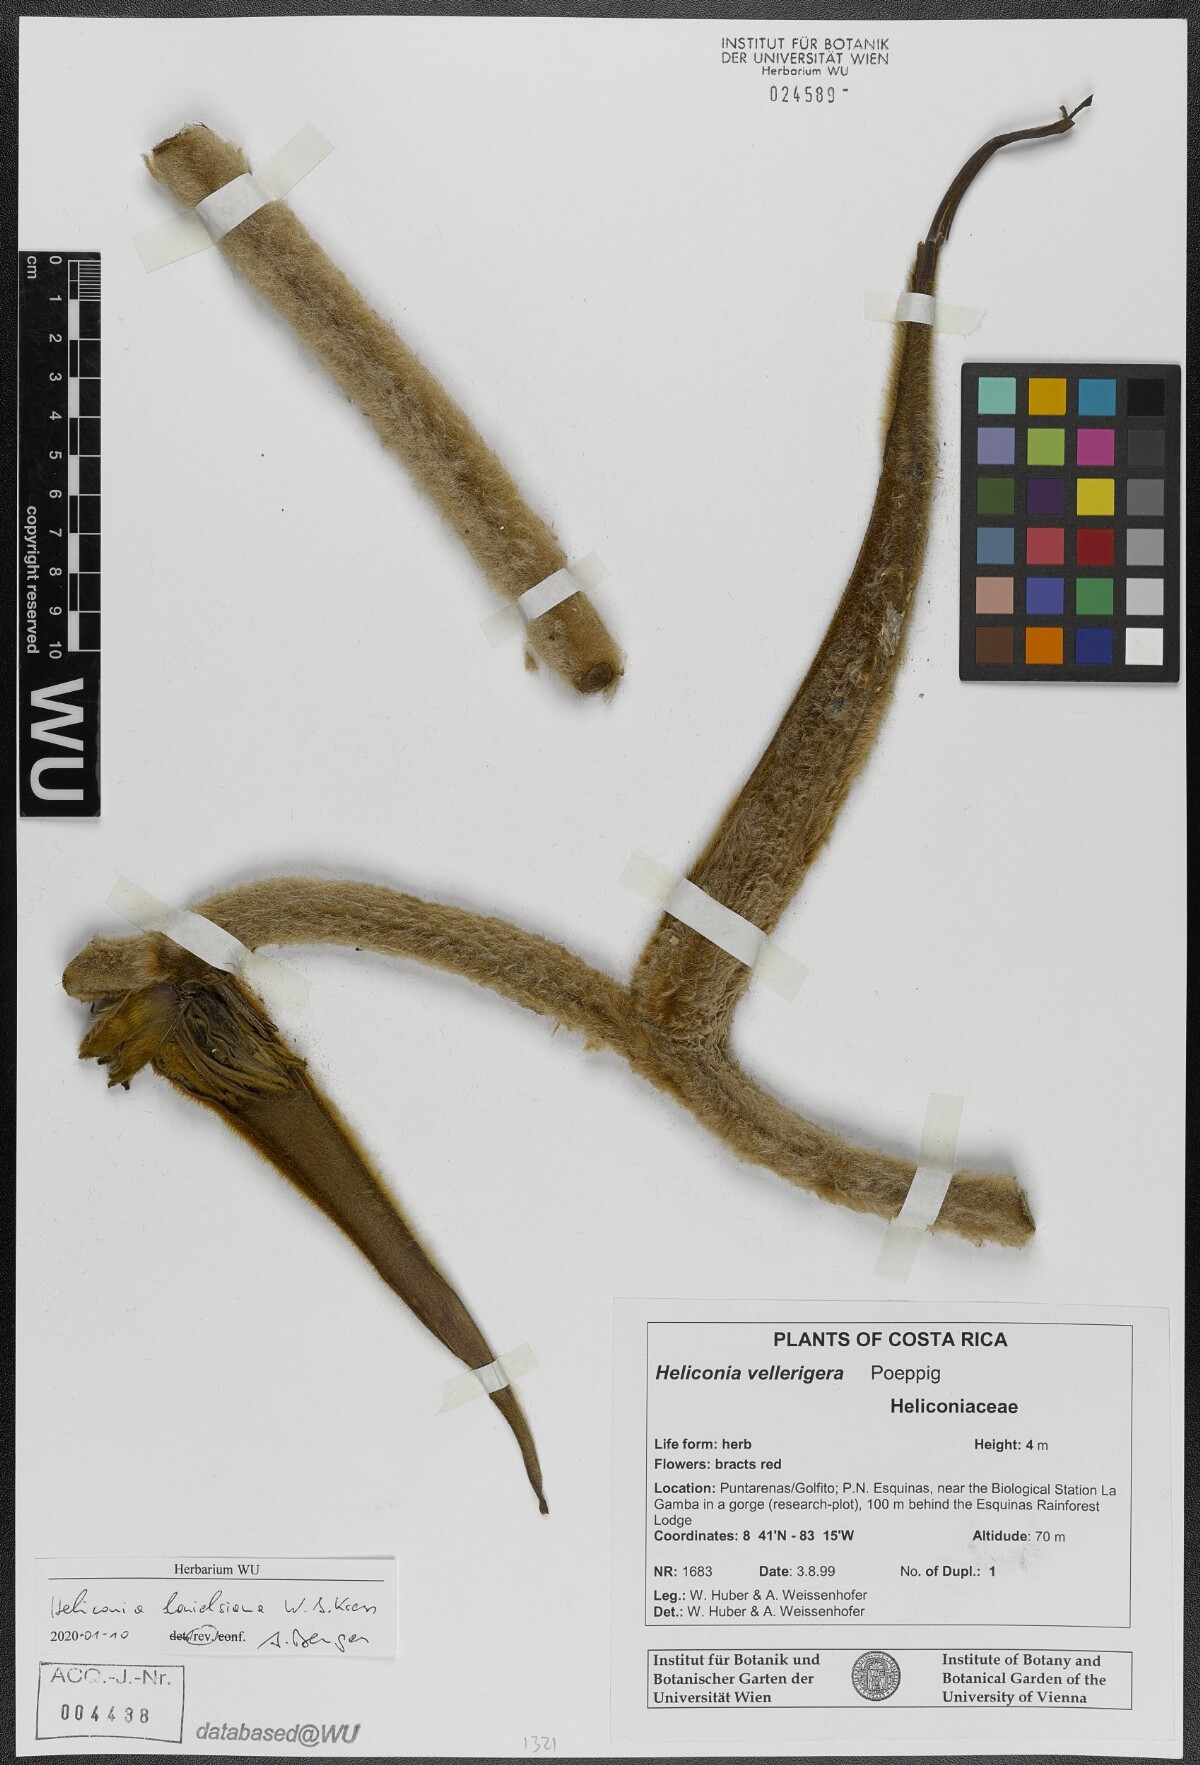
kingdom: Plantae
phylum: Tracheophyta
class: Liliopsida
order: Zingiberales
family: Heliconiaceae
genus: Heliconia
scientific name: Heliconia danielsiana
